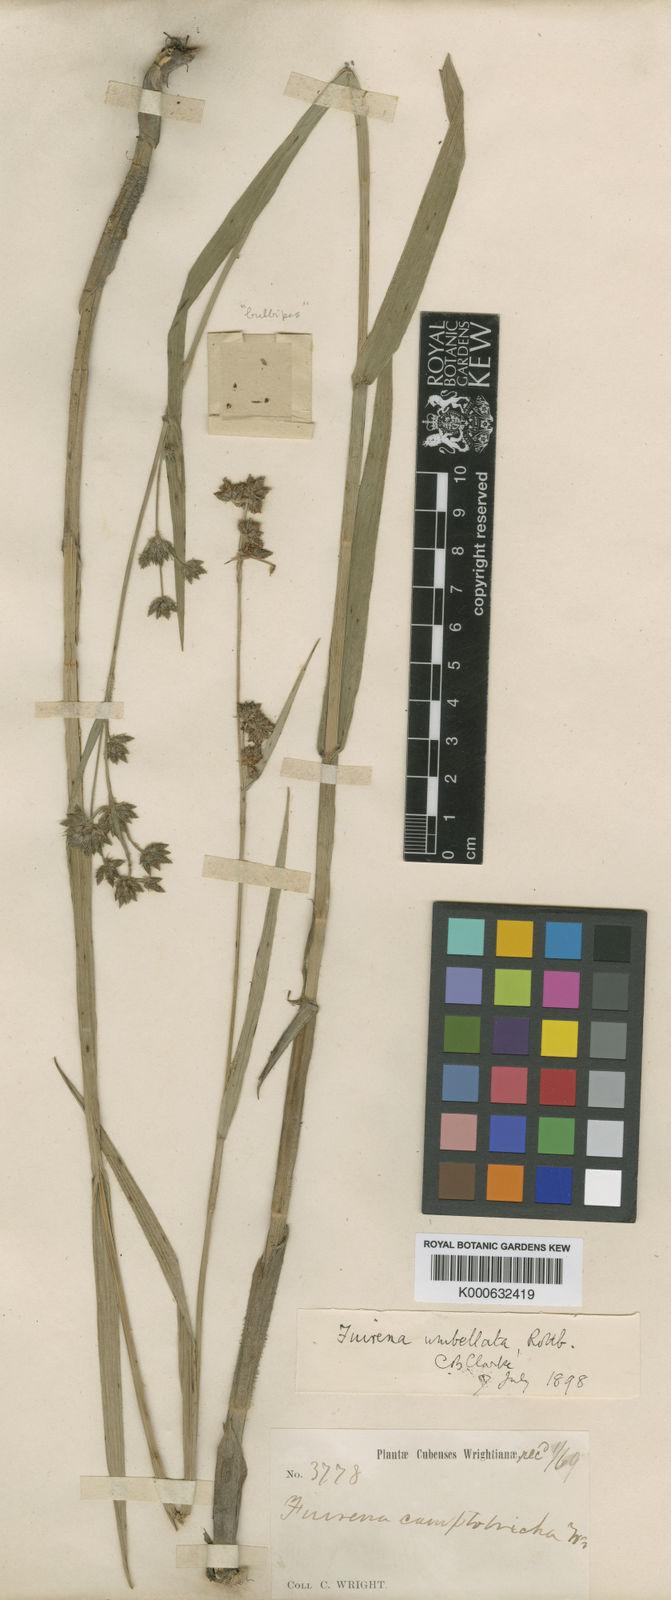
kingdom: Plantae
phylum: Tracheophyta
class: Liliopsida
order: Poales
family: Cyperaceae
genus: Fuirena
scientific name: Fuirena umbellata
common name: Yefen
